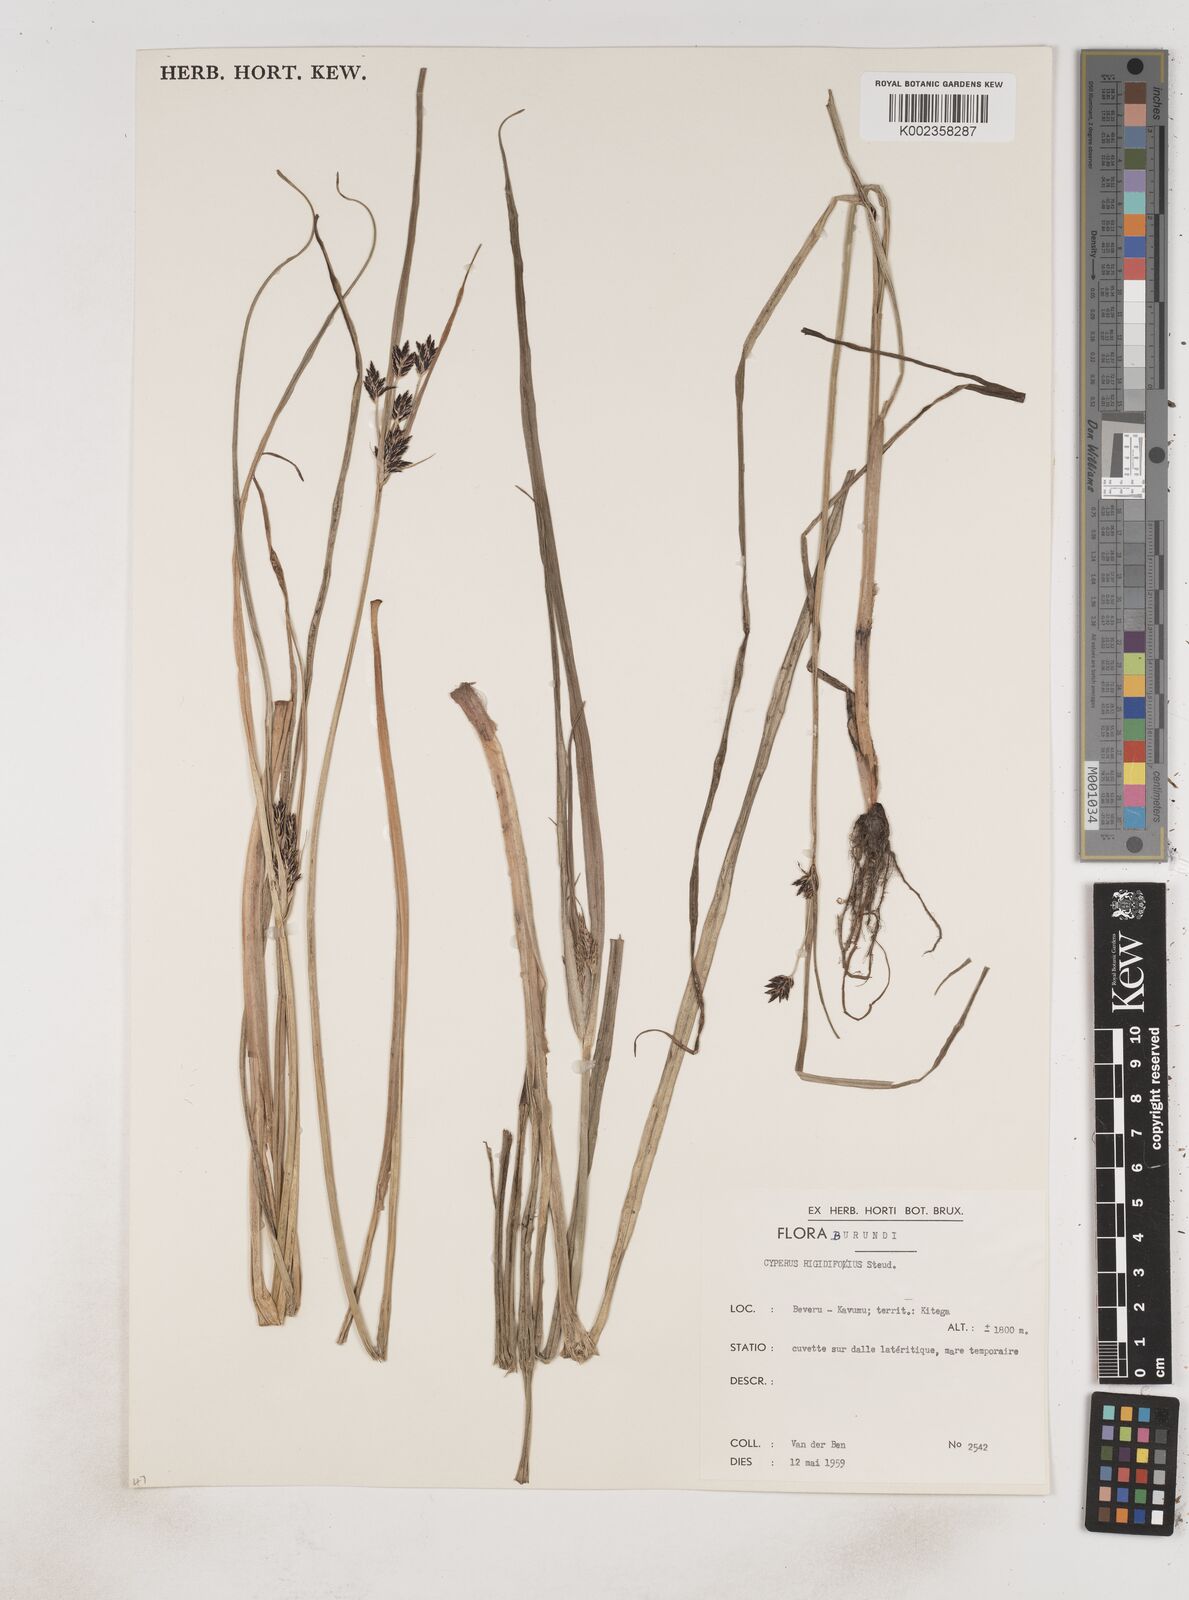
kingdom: Plantae
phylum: Tracheophyta
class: Liliopsida
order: Poales
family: Cyperaceae
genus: Cyperus
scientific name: Cyperus rigidifolius
